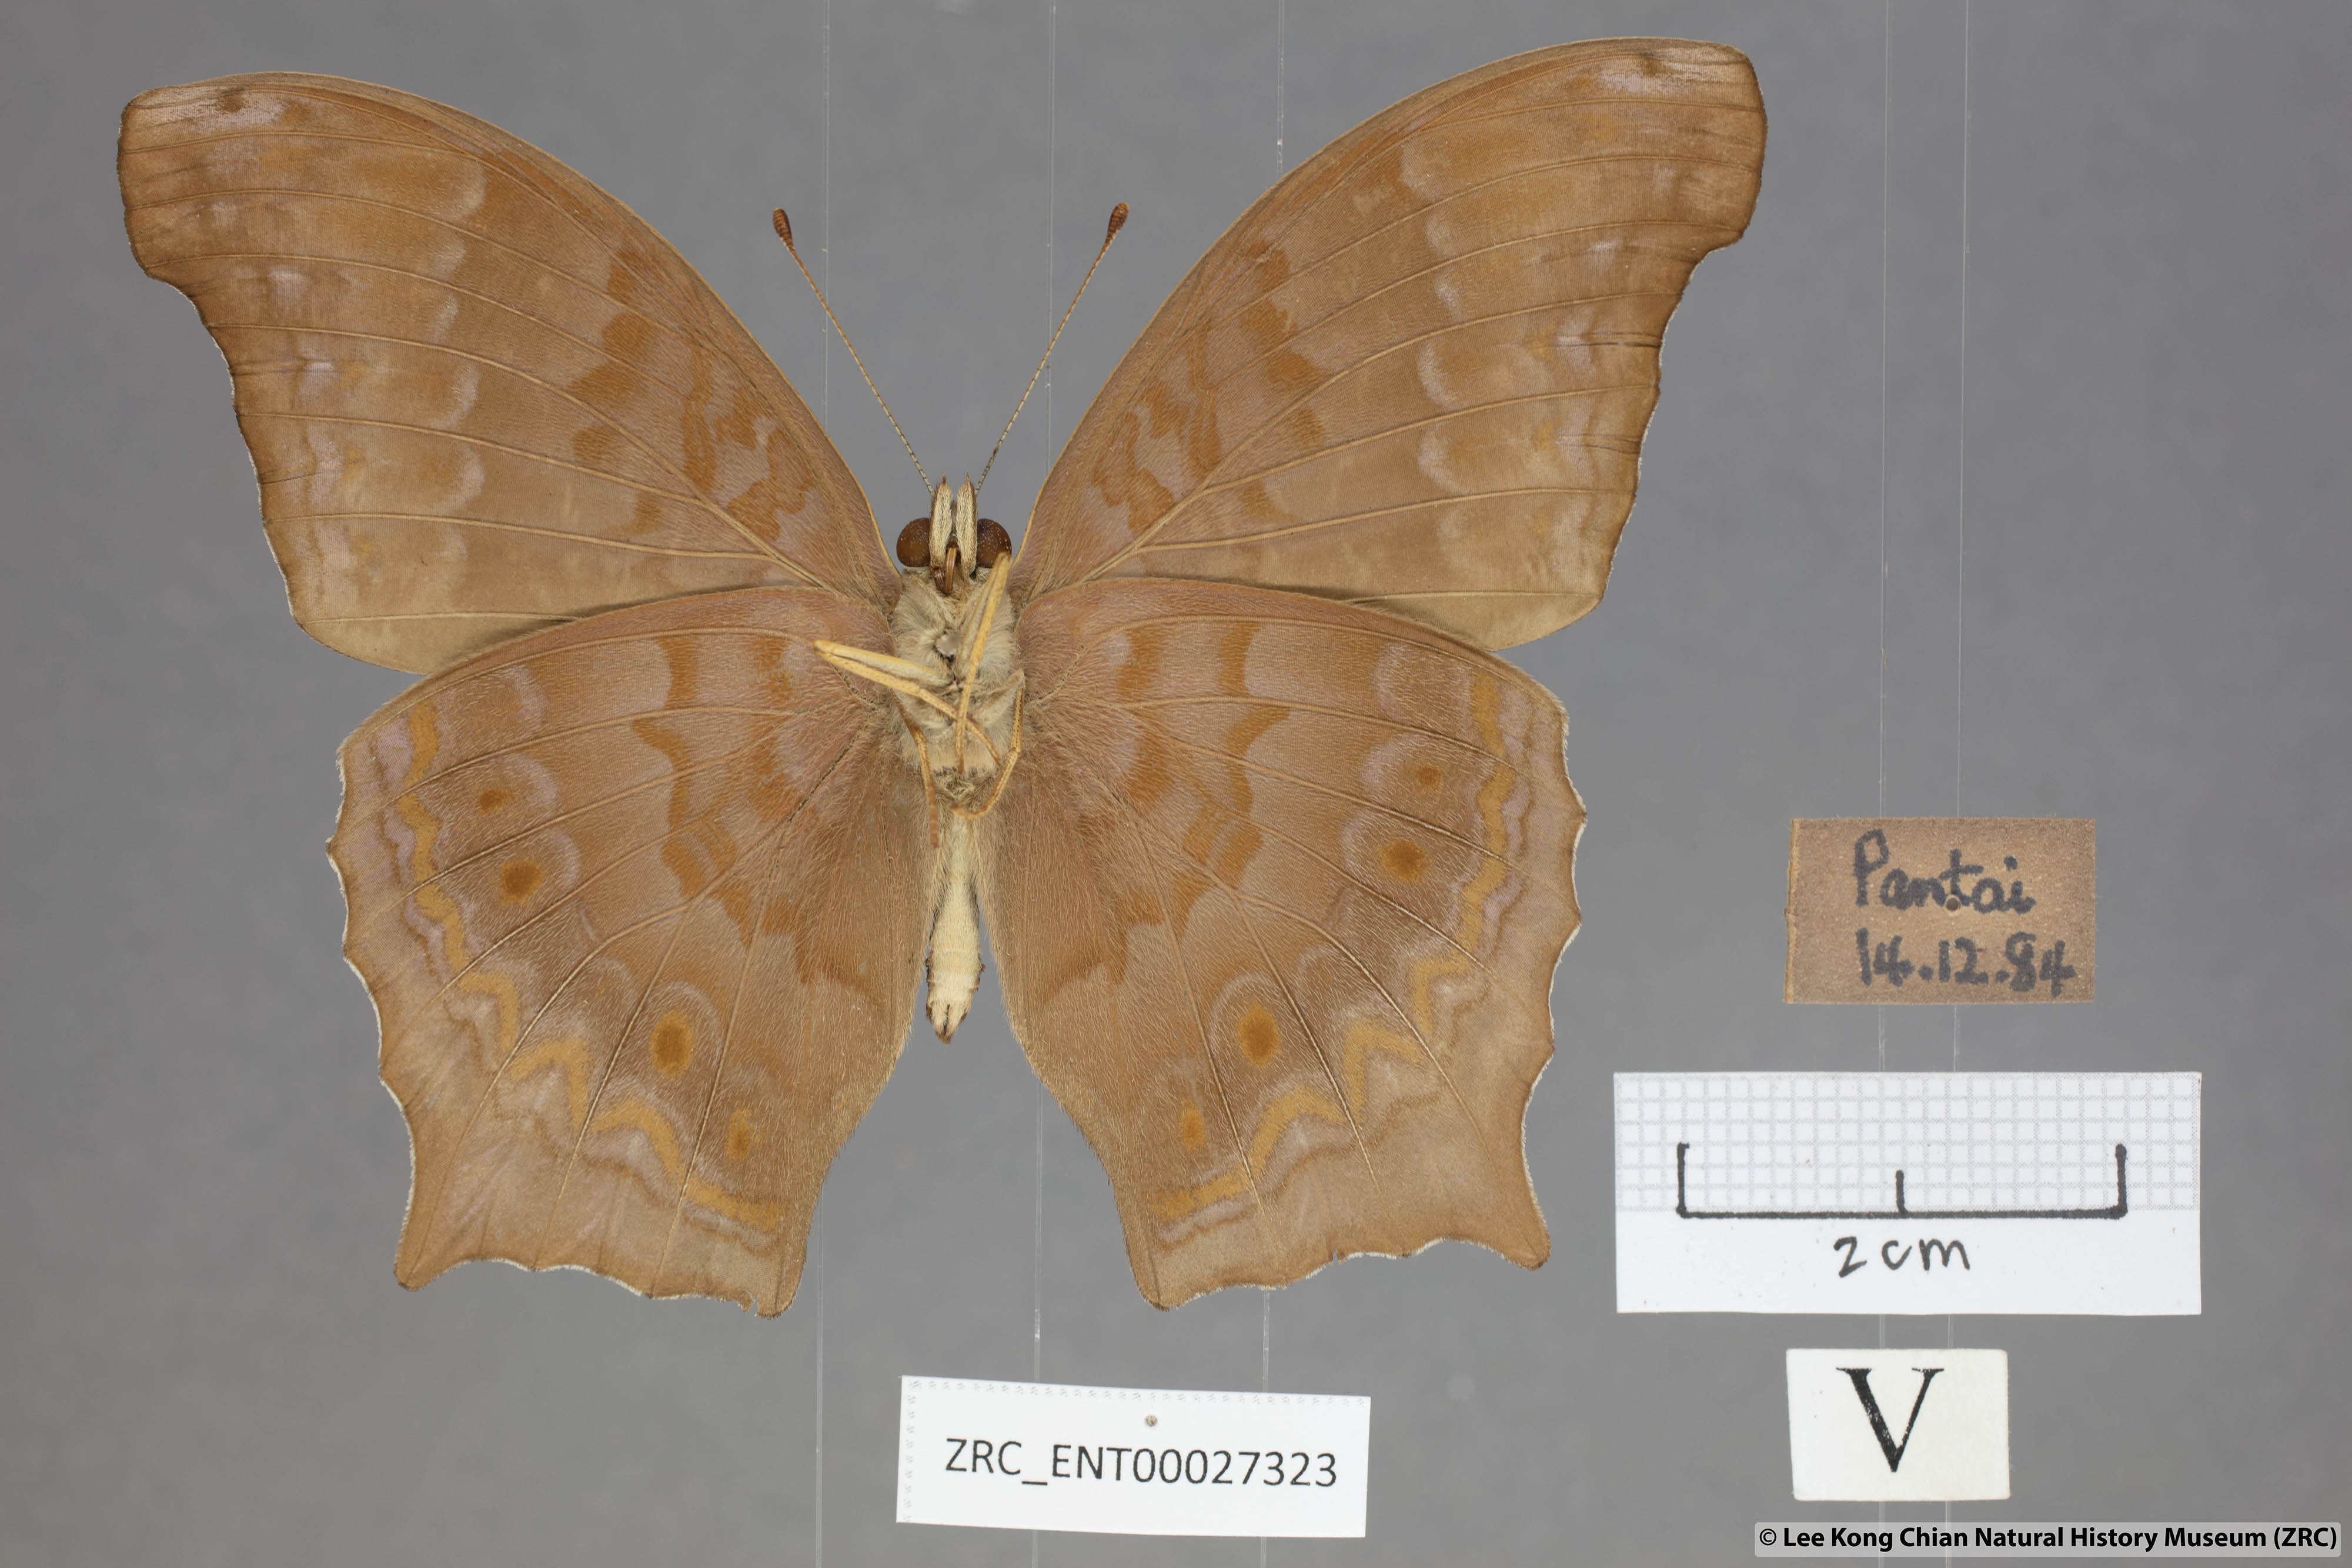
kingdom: Animalia
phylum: Arthropoda
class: Insecta
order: Lepidoptera
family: Nymphalidae
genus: Terinos
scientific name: Terinos atlita
